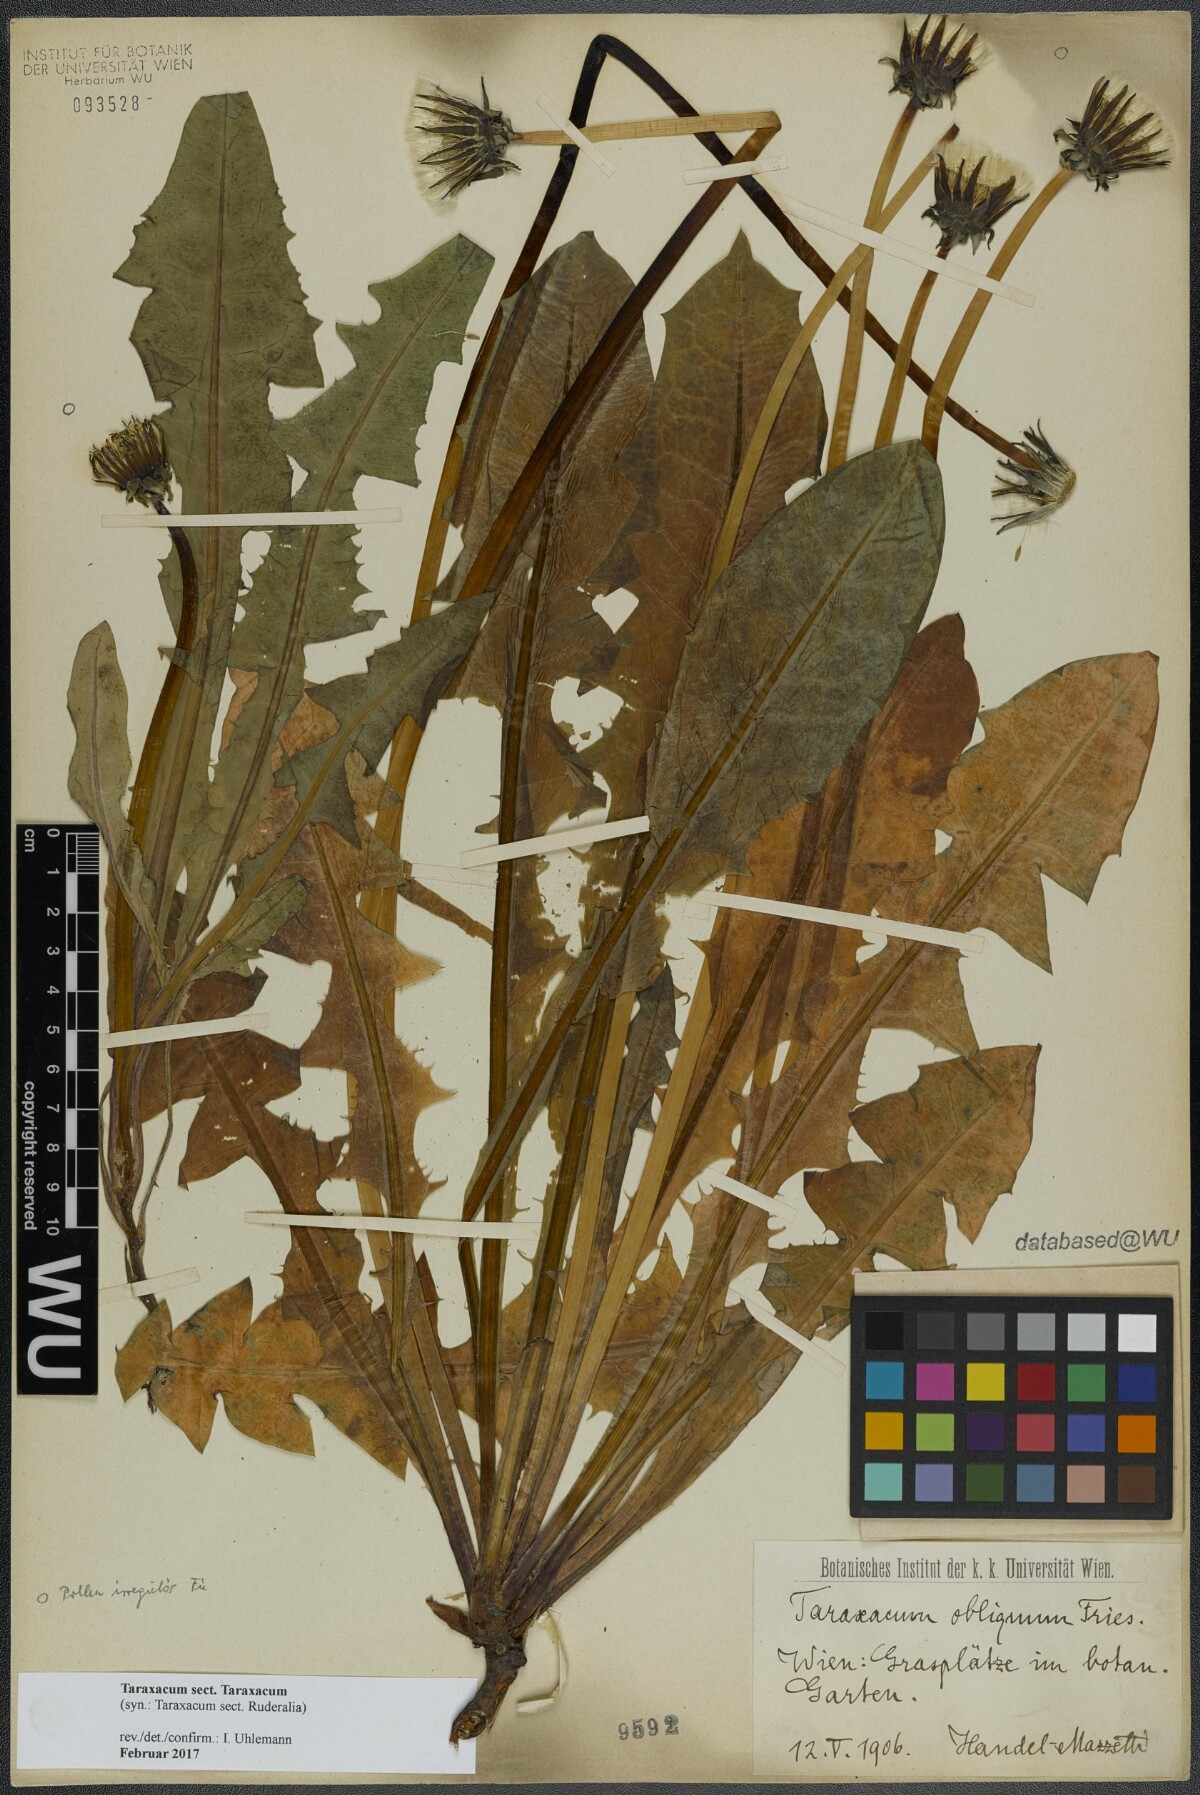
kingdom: Plantae
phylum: Tracheophyta
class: Magnoliopsida
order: Asterales
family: Asteraceae
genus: Taraxacum
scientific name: Taraxacum
